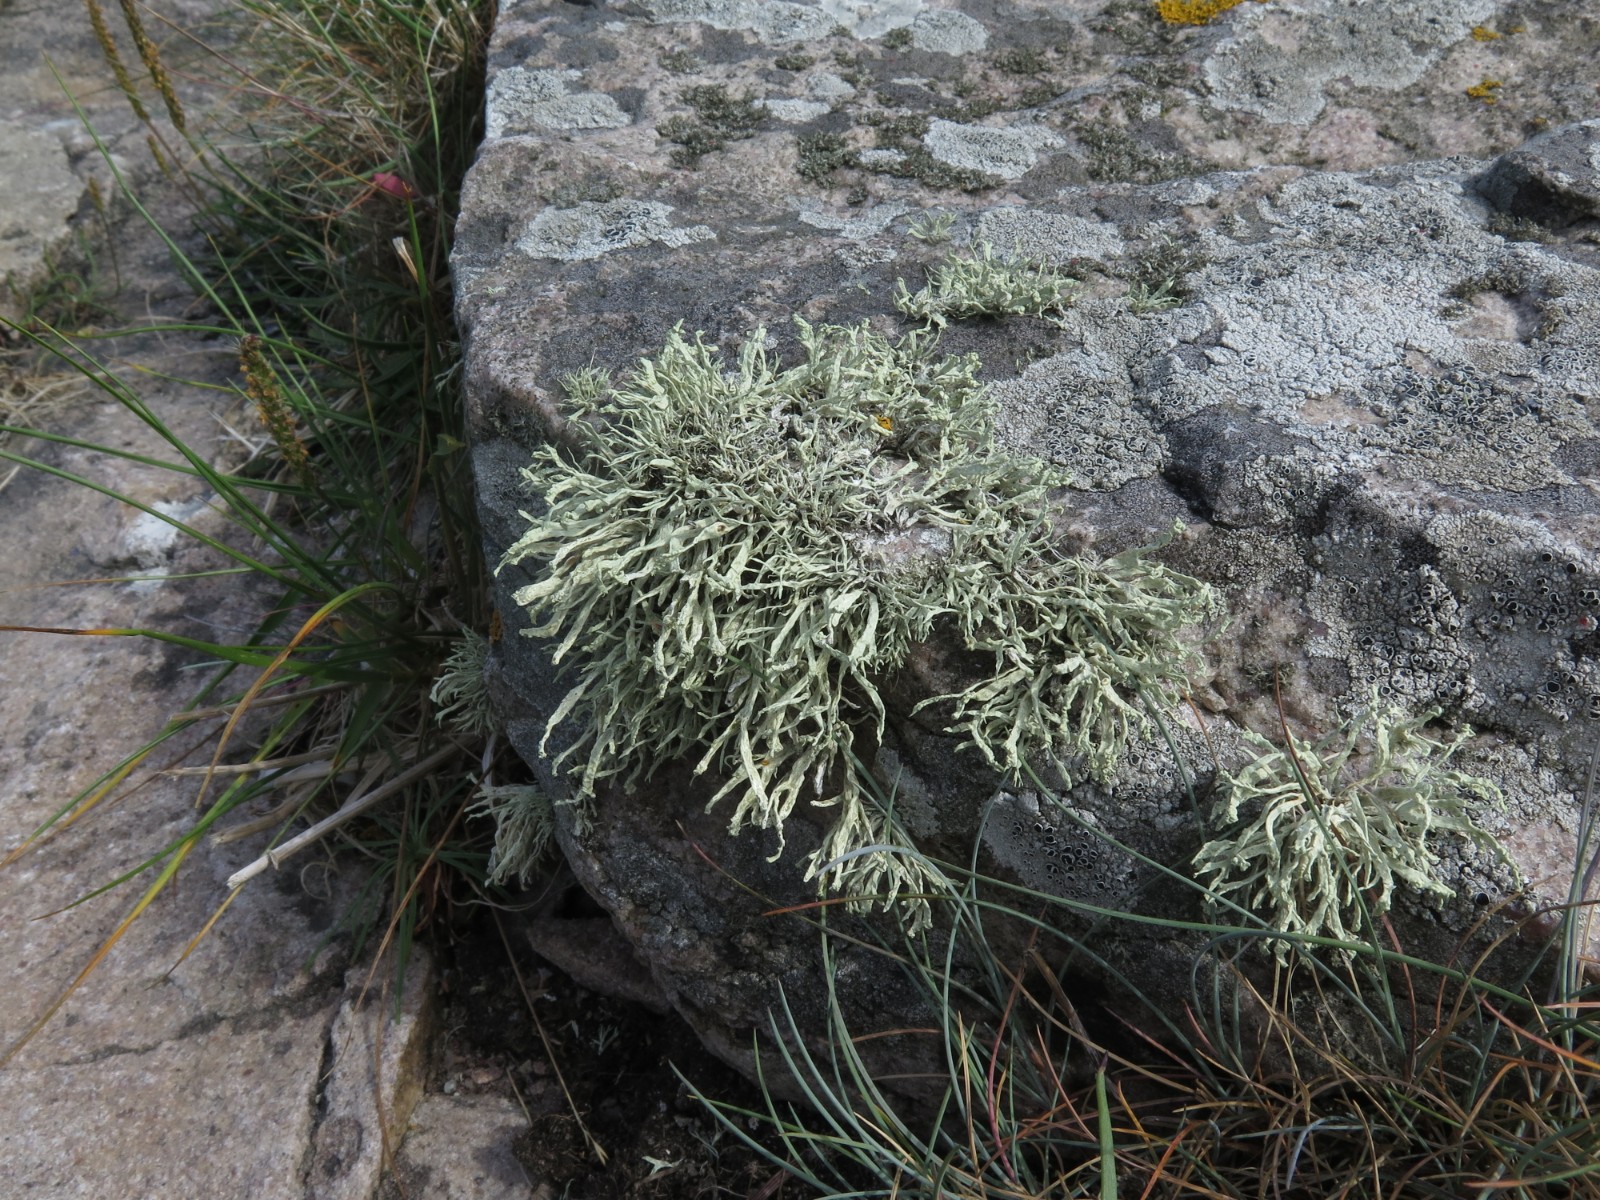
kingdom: Fungi
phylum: Ascomycota
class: Lecanoromycetes
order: Lecanorales
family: Ramalinaceae
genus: Ramalina
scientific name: Ramalina siliquosa
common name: klippe-grenlav
